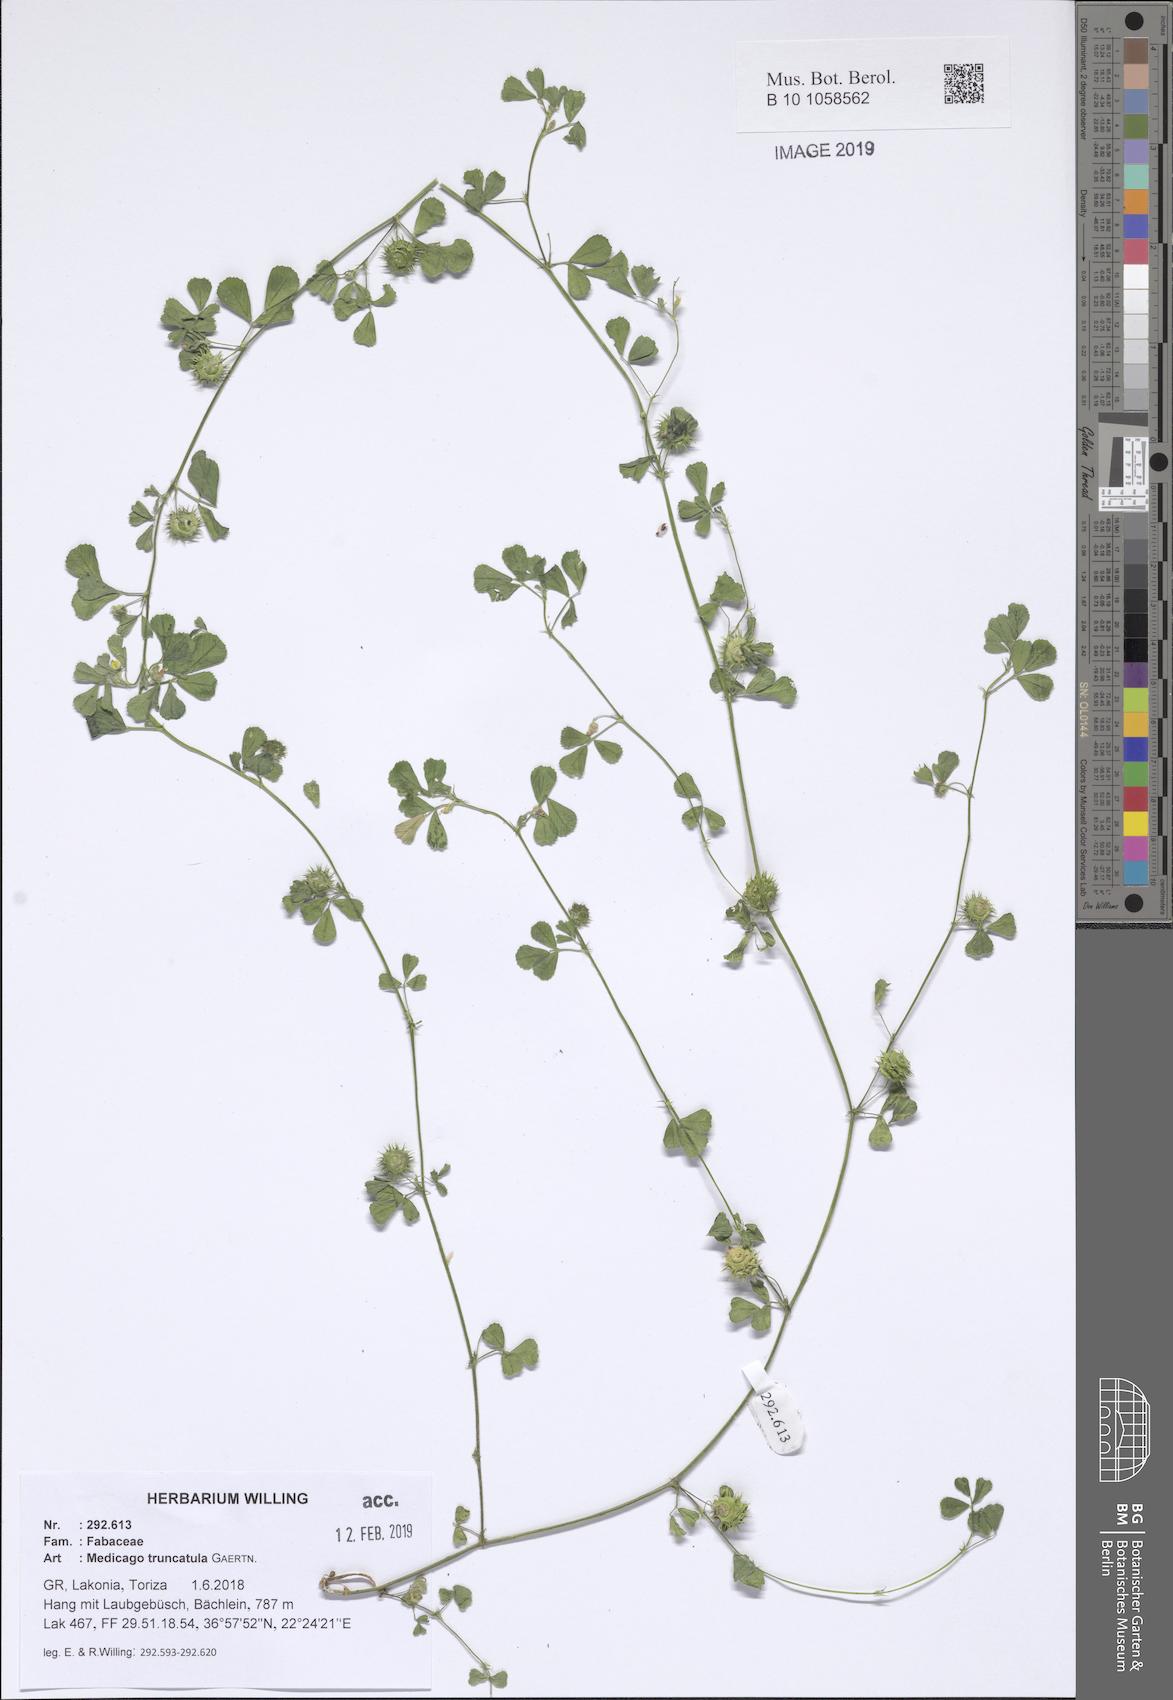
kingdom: Plantae
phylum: Tracheophyta
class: Magnoliopsida
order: Fabales
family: Fabaceae
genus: Medicago
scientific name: Medicago truncatula
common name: Strong-spined medick
